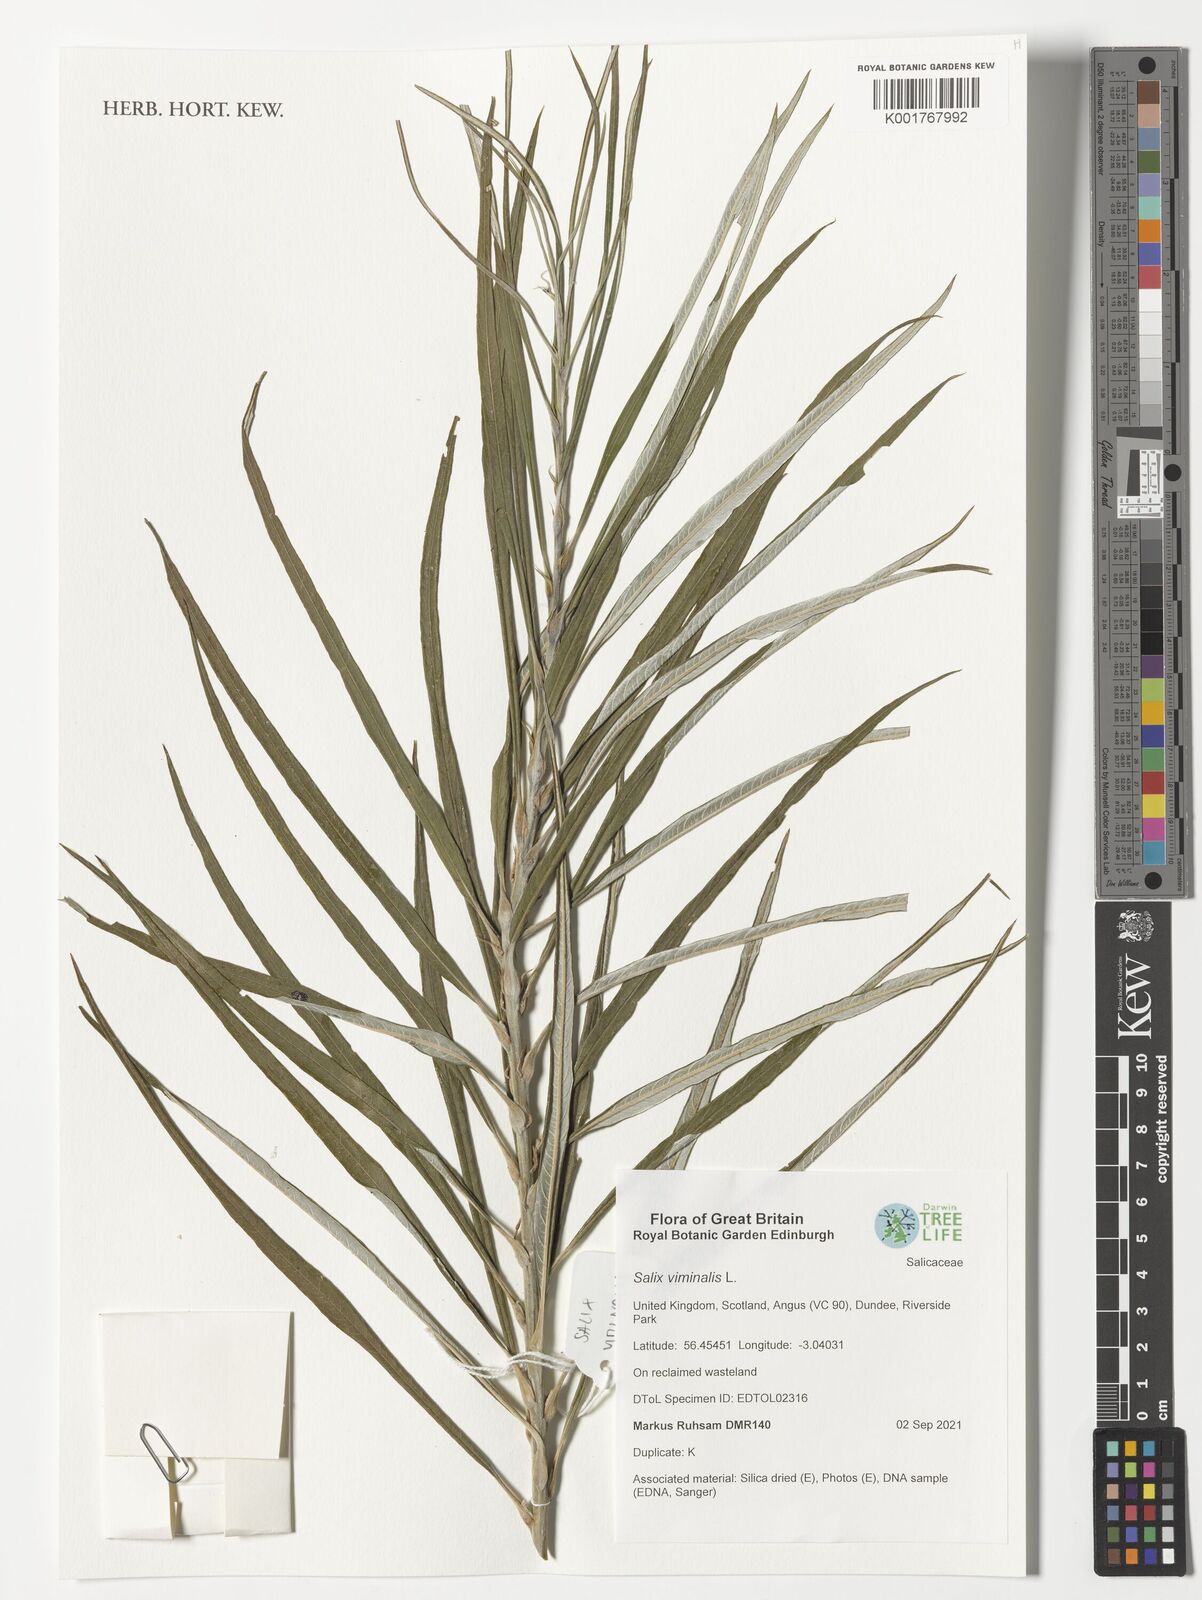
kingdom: Plantae
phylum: Tracheophyta
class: Magnoliopsida
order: Malpighiales
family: Salicaceae
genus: Salix
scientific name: Salix viminalis
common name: Osier
